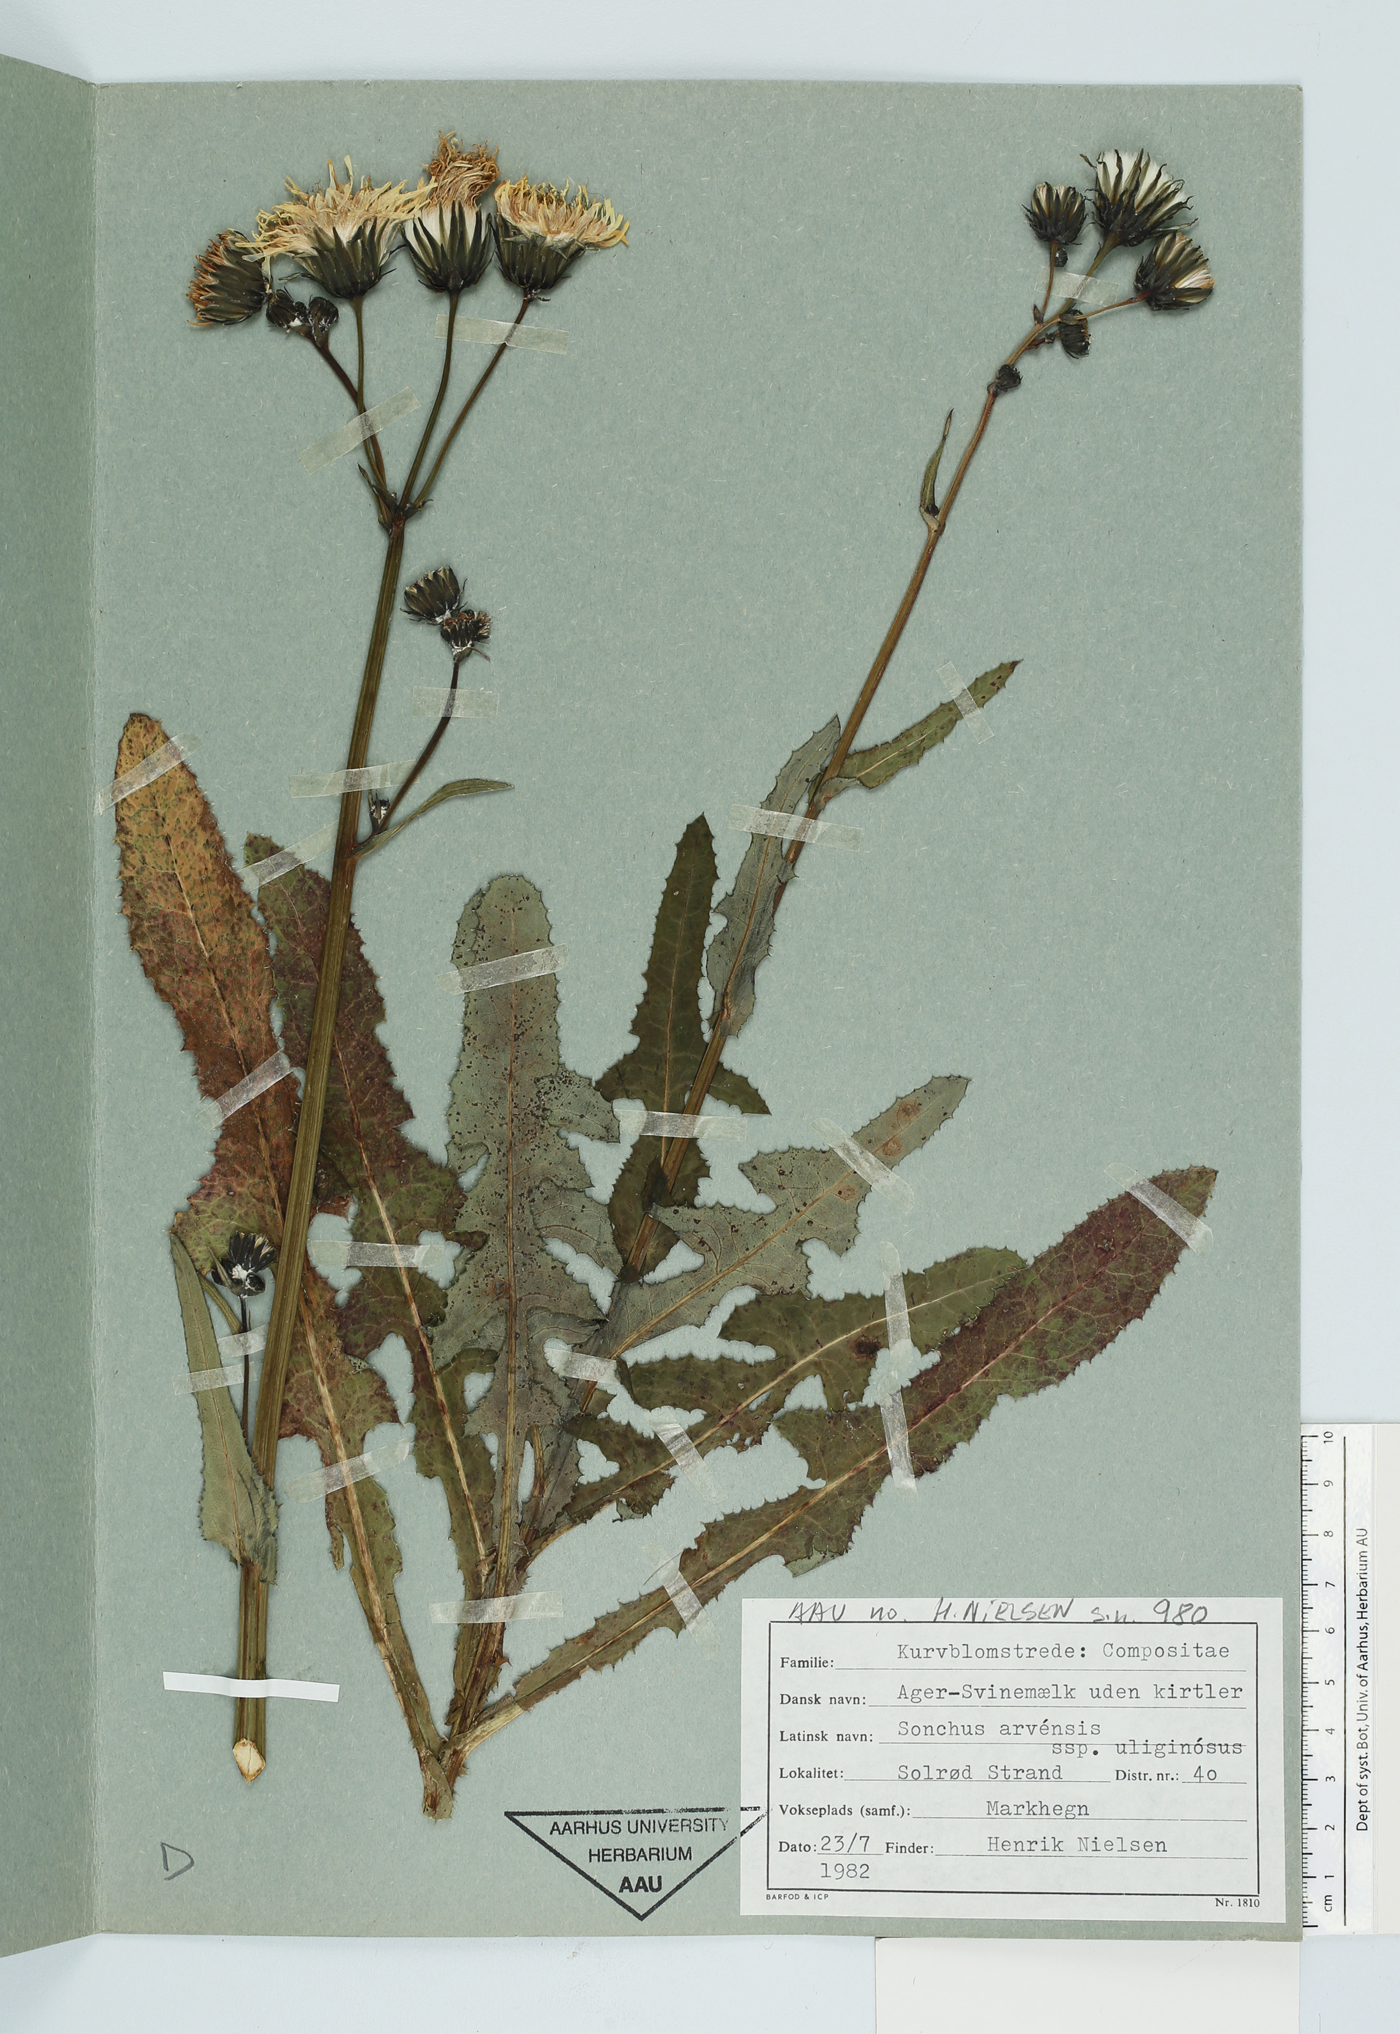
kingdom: Plantae
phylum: Tracheophyta
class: Magnoliopsida
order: Asterales
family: Asteraceae
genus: Sonchus
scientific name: Sonchus arvensis
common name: Perennial sow-thistle
